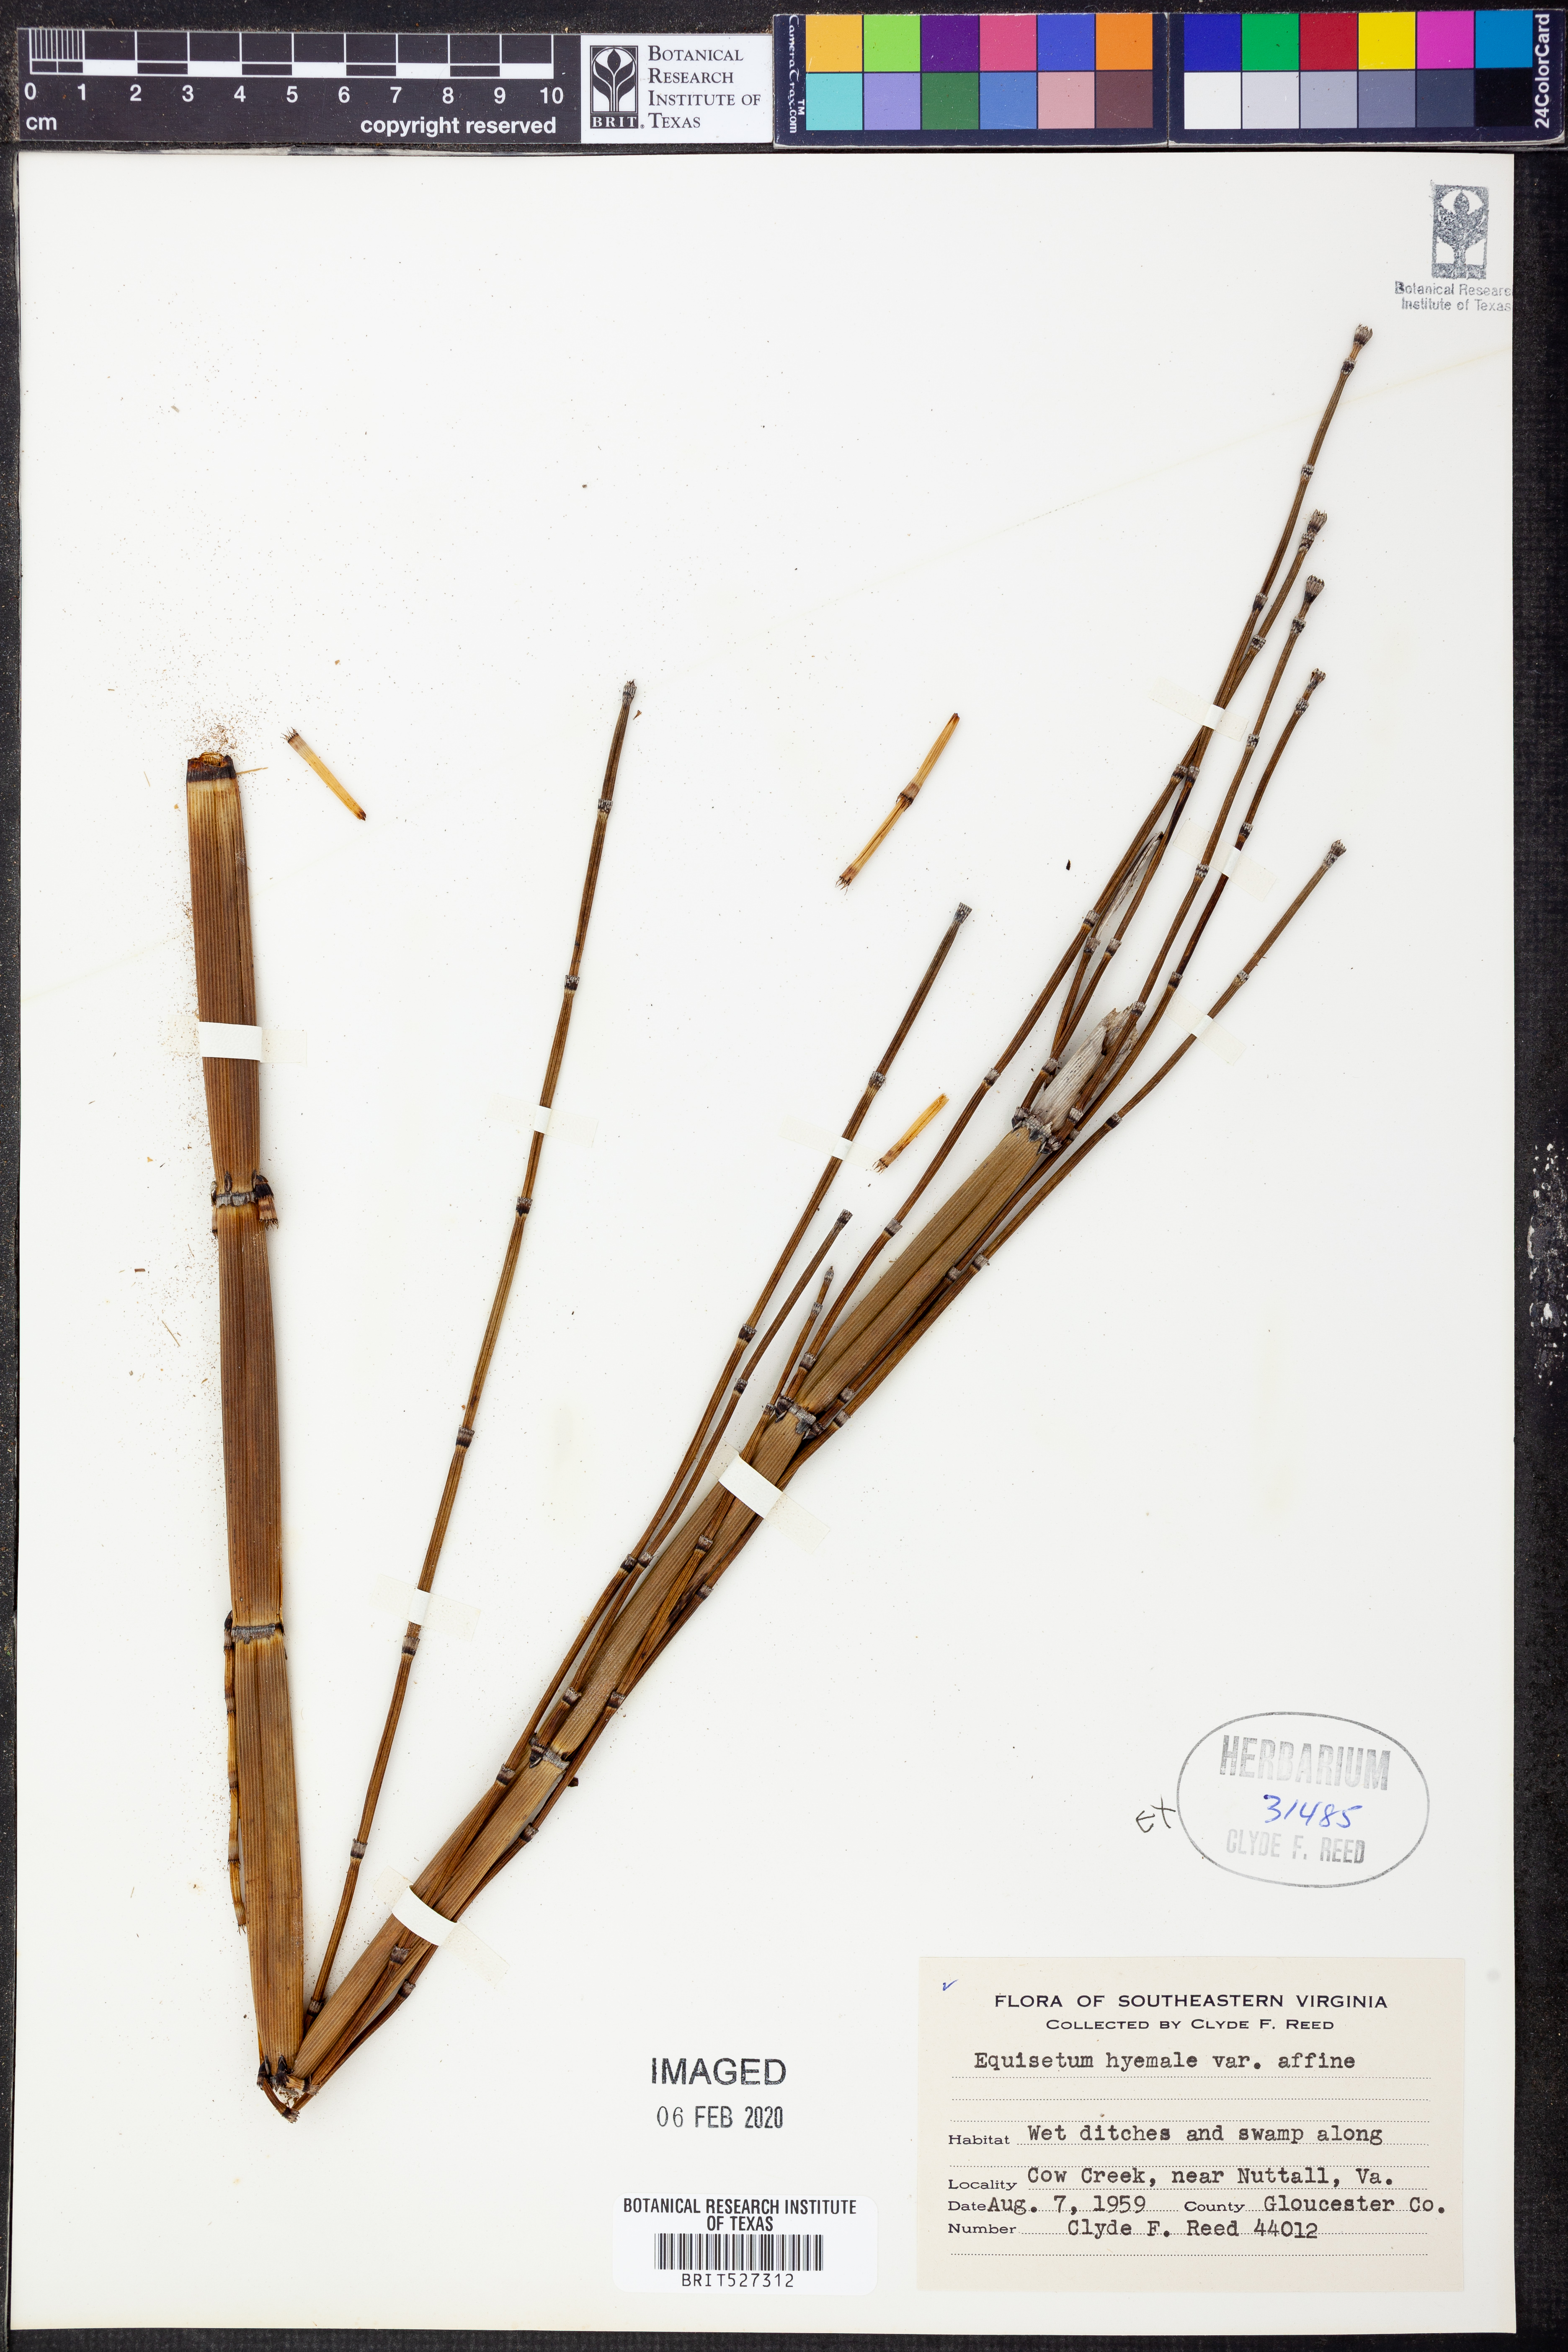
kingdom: Plantae
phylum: Tracheophyta
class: Polypodiopsida
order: Equisetales
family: Equisetaceae
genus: Equisetum
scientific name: Equisetum praealtum
